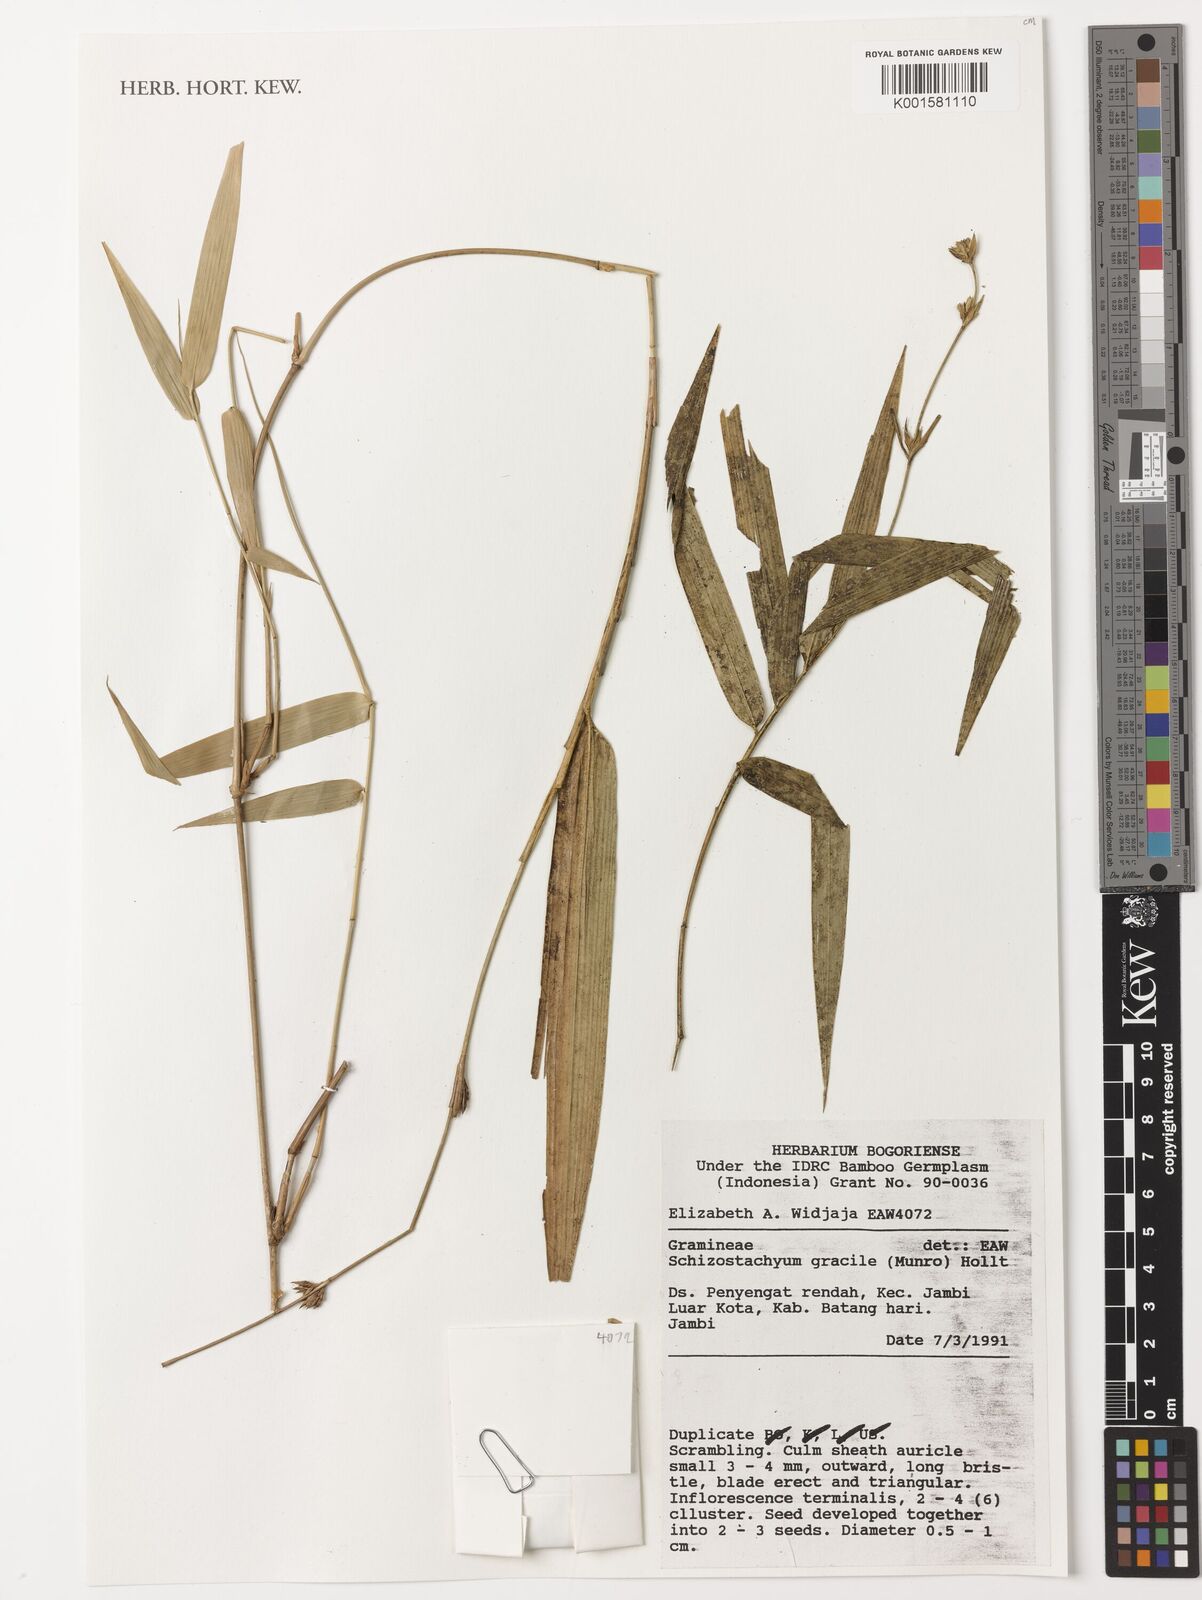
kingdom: Plantae
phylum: Tracheophyta
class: Liliopsida
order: Poales
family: Poaceae
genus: Schizostachyum
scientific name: Schizostachyum gracile
